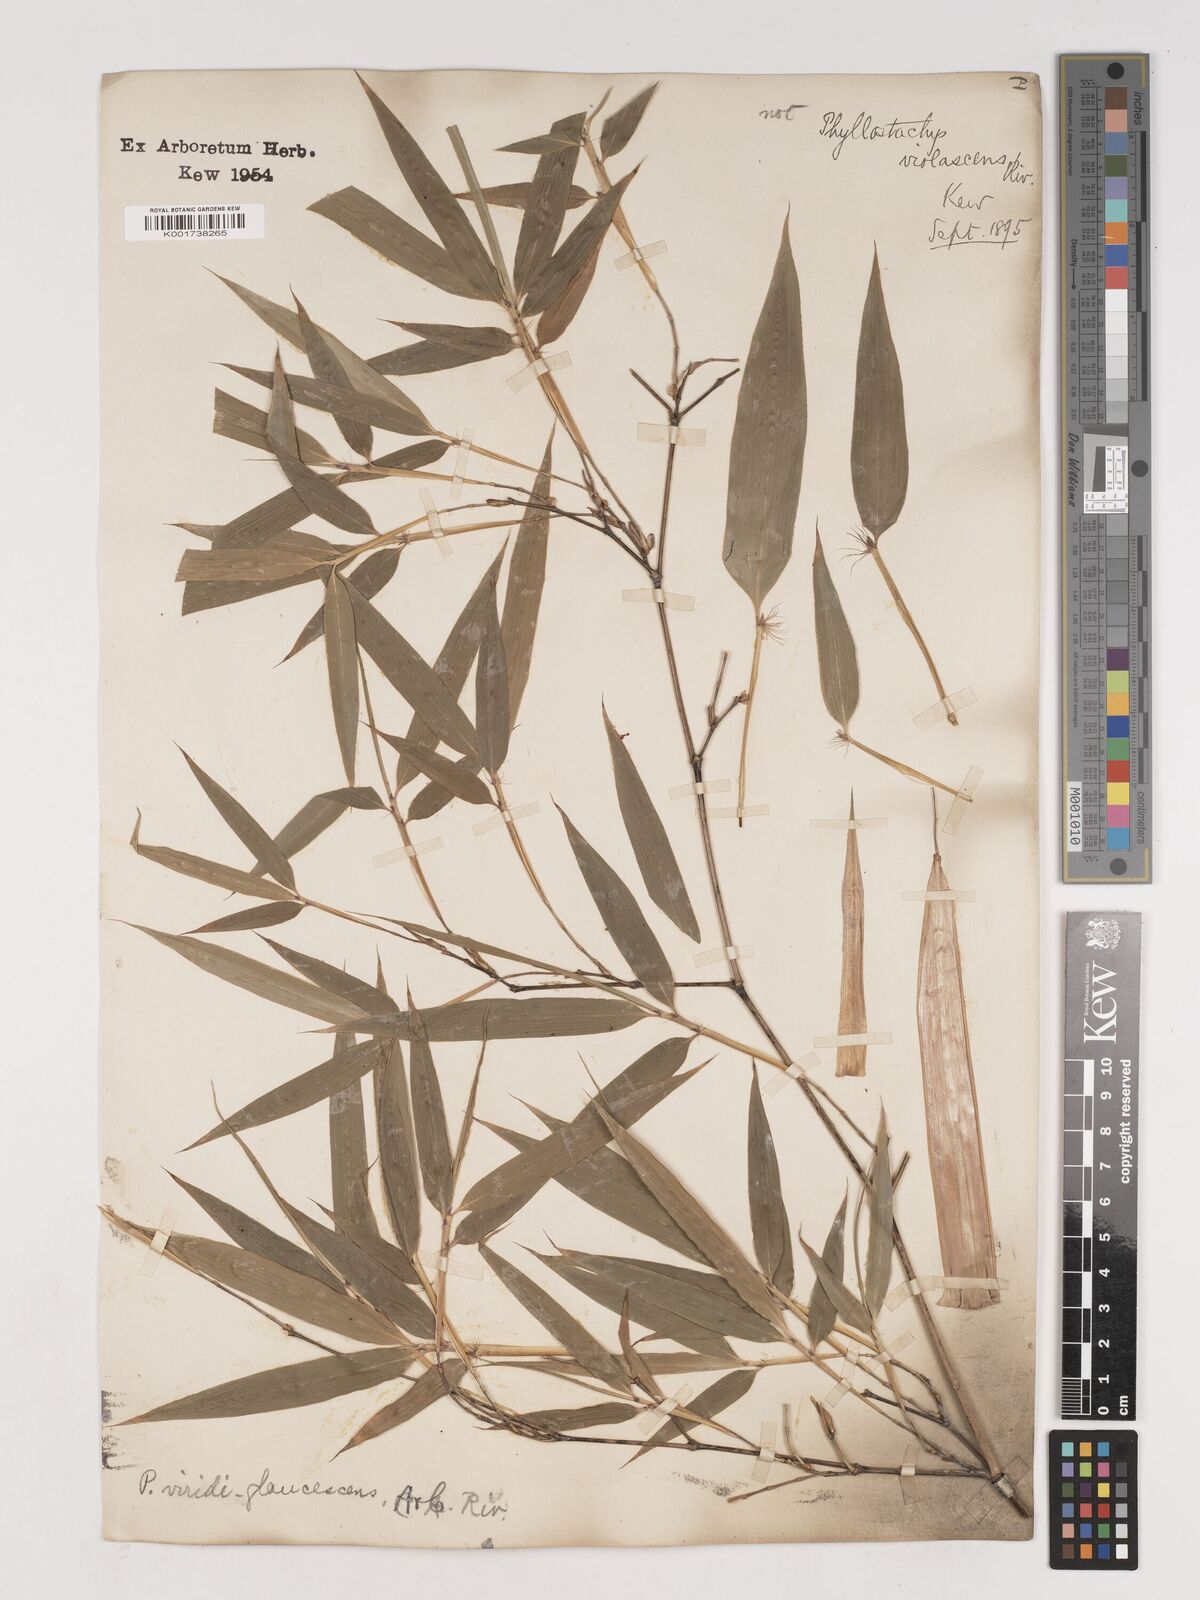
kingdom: Plantae
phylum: Tracheophyta
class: Liliopsida
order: Poales
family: Poaceae
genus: Phyllostachys
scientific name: Phyllostachys viridiglaucescens
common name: Greenwax golden bamboo
